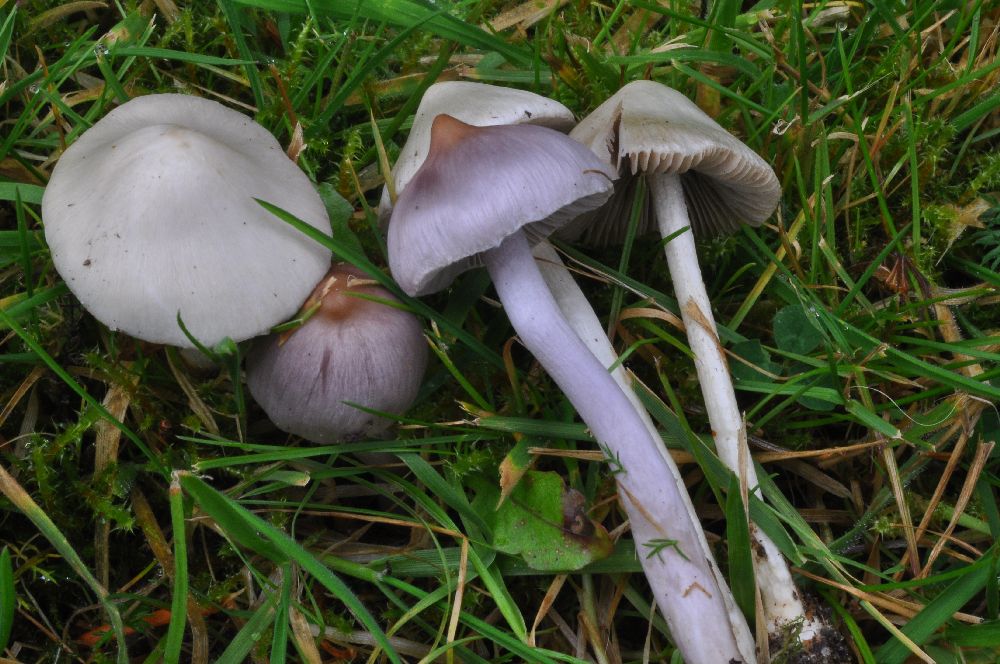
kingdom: Fungi
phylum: Basidiomycota
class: Agaricomycetes
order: Agaricales
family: Inocybaceae
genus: Inocybe
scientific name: Inocybe geophylla
